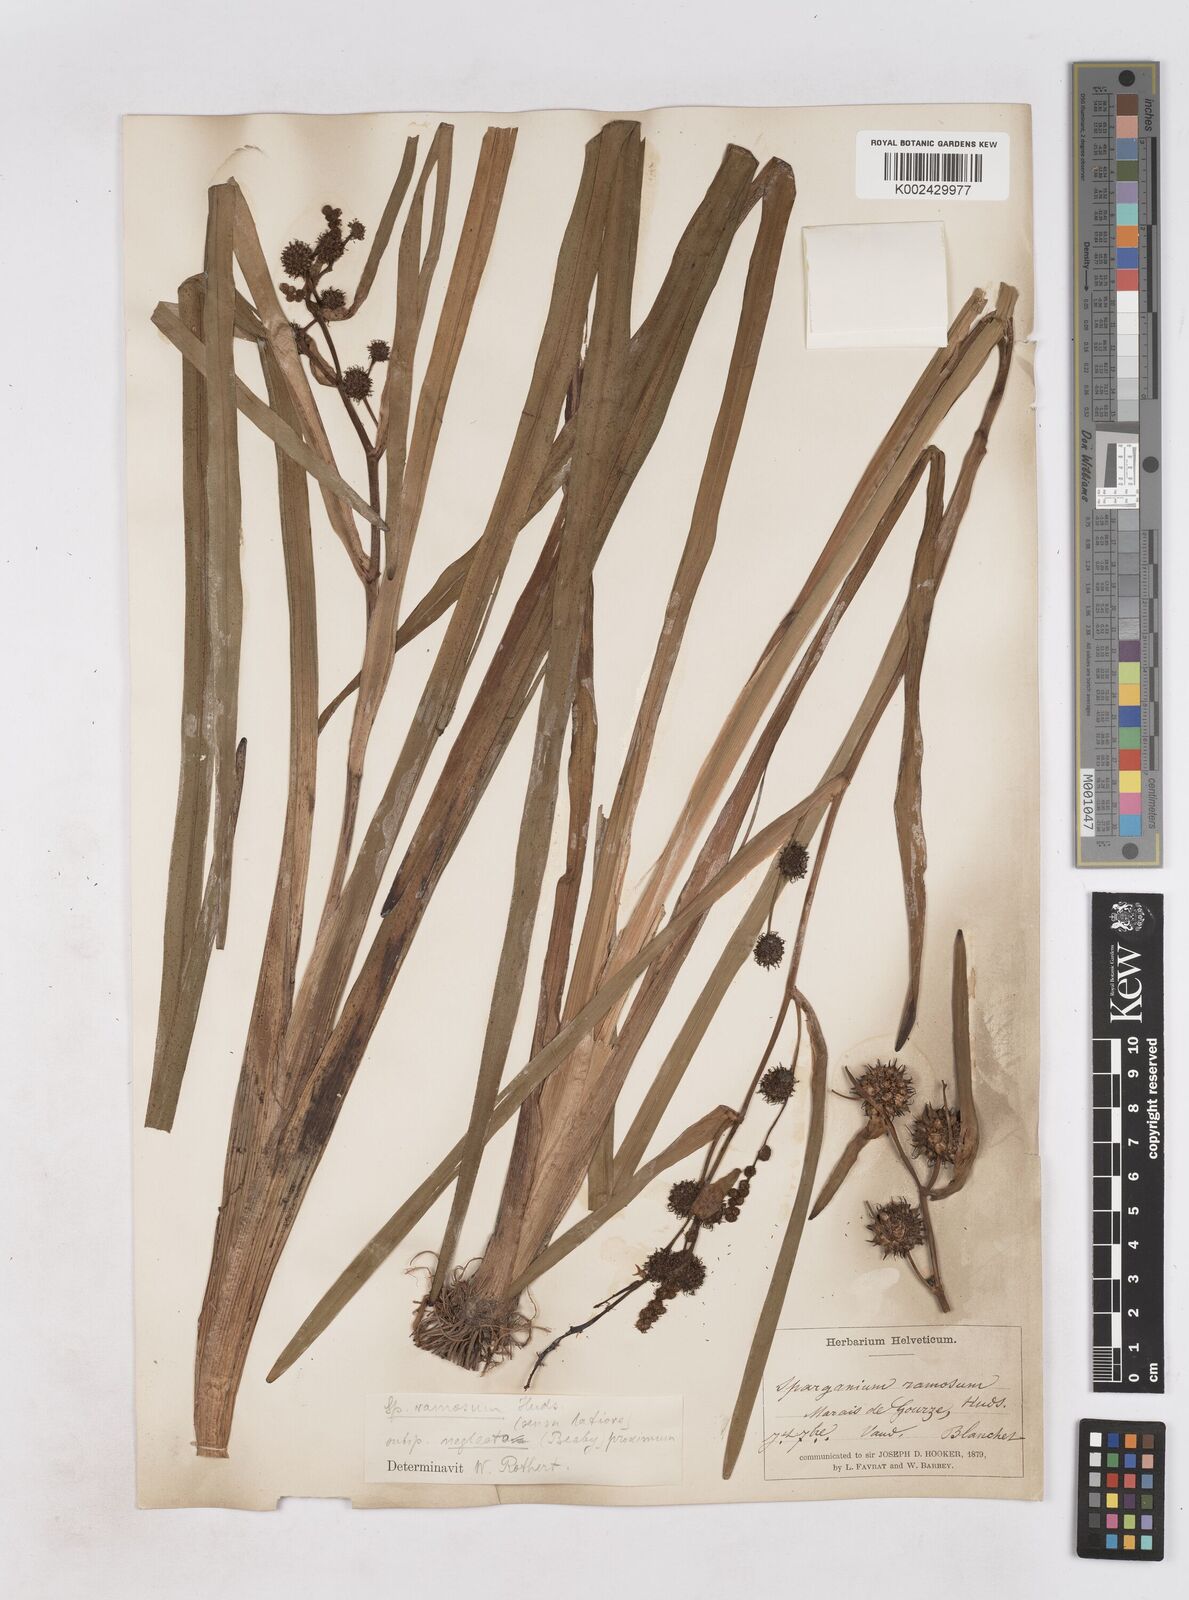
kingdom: Plantae
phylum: Tracheophyta
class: Liliopsida
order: Poales
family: Typhaceae
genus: Sparganium
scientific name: Sparganium erectum
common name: Branched bur-reed
